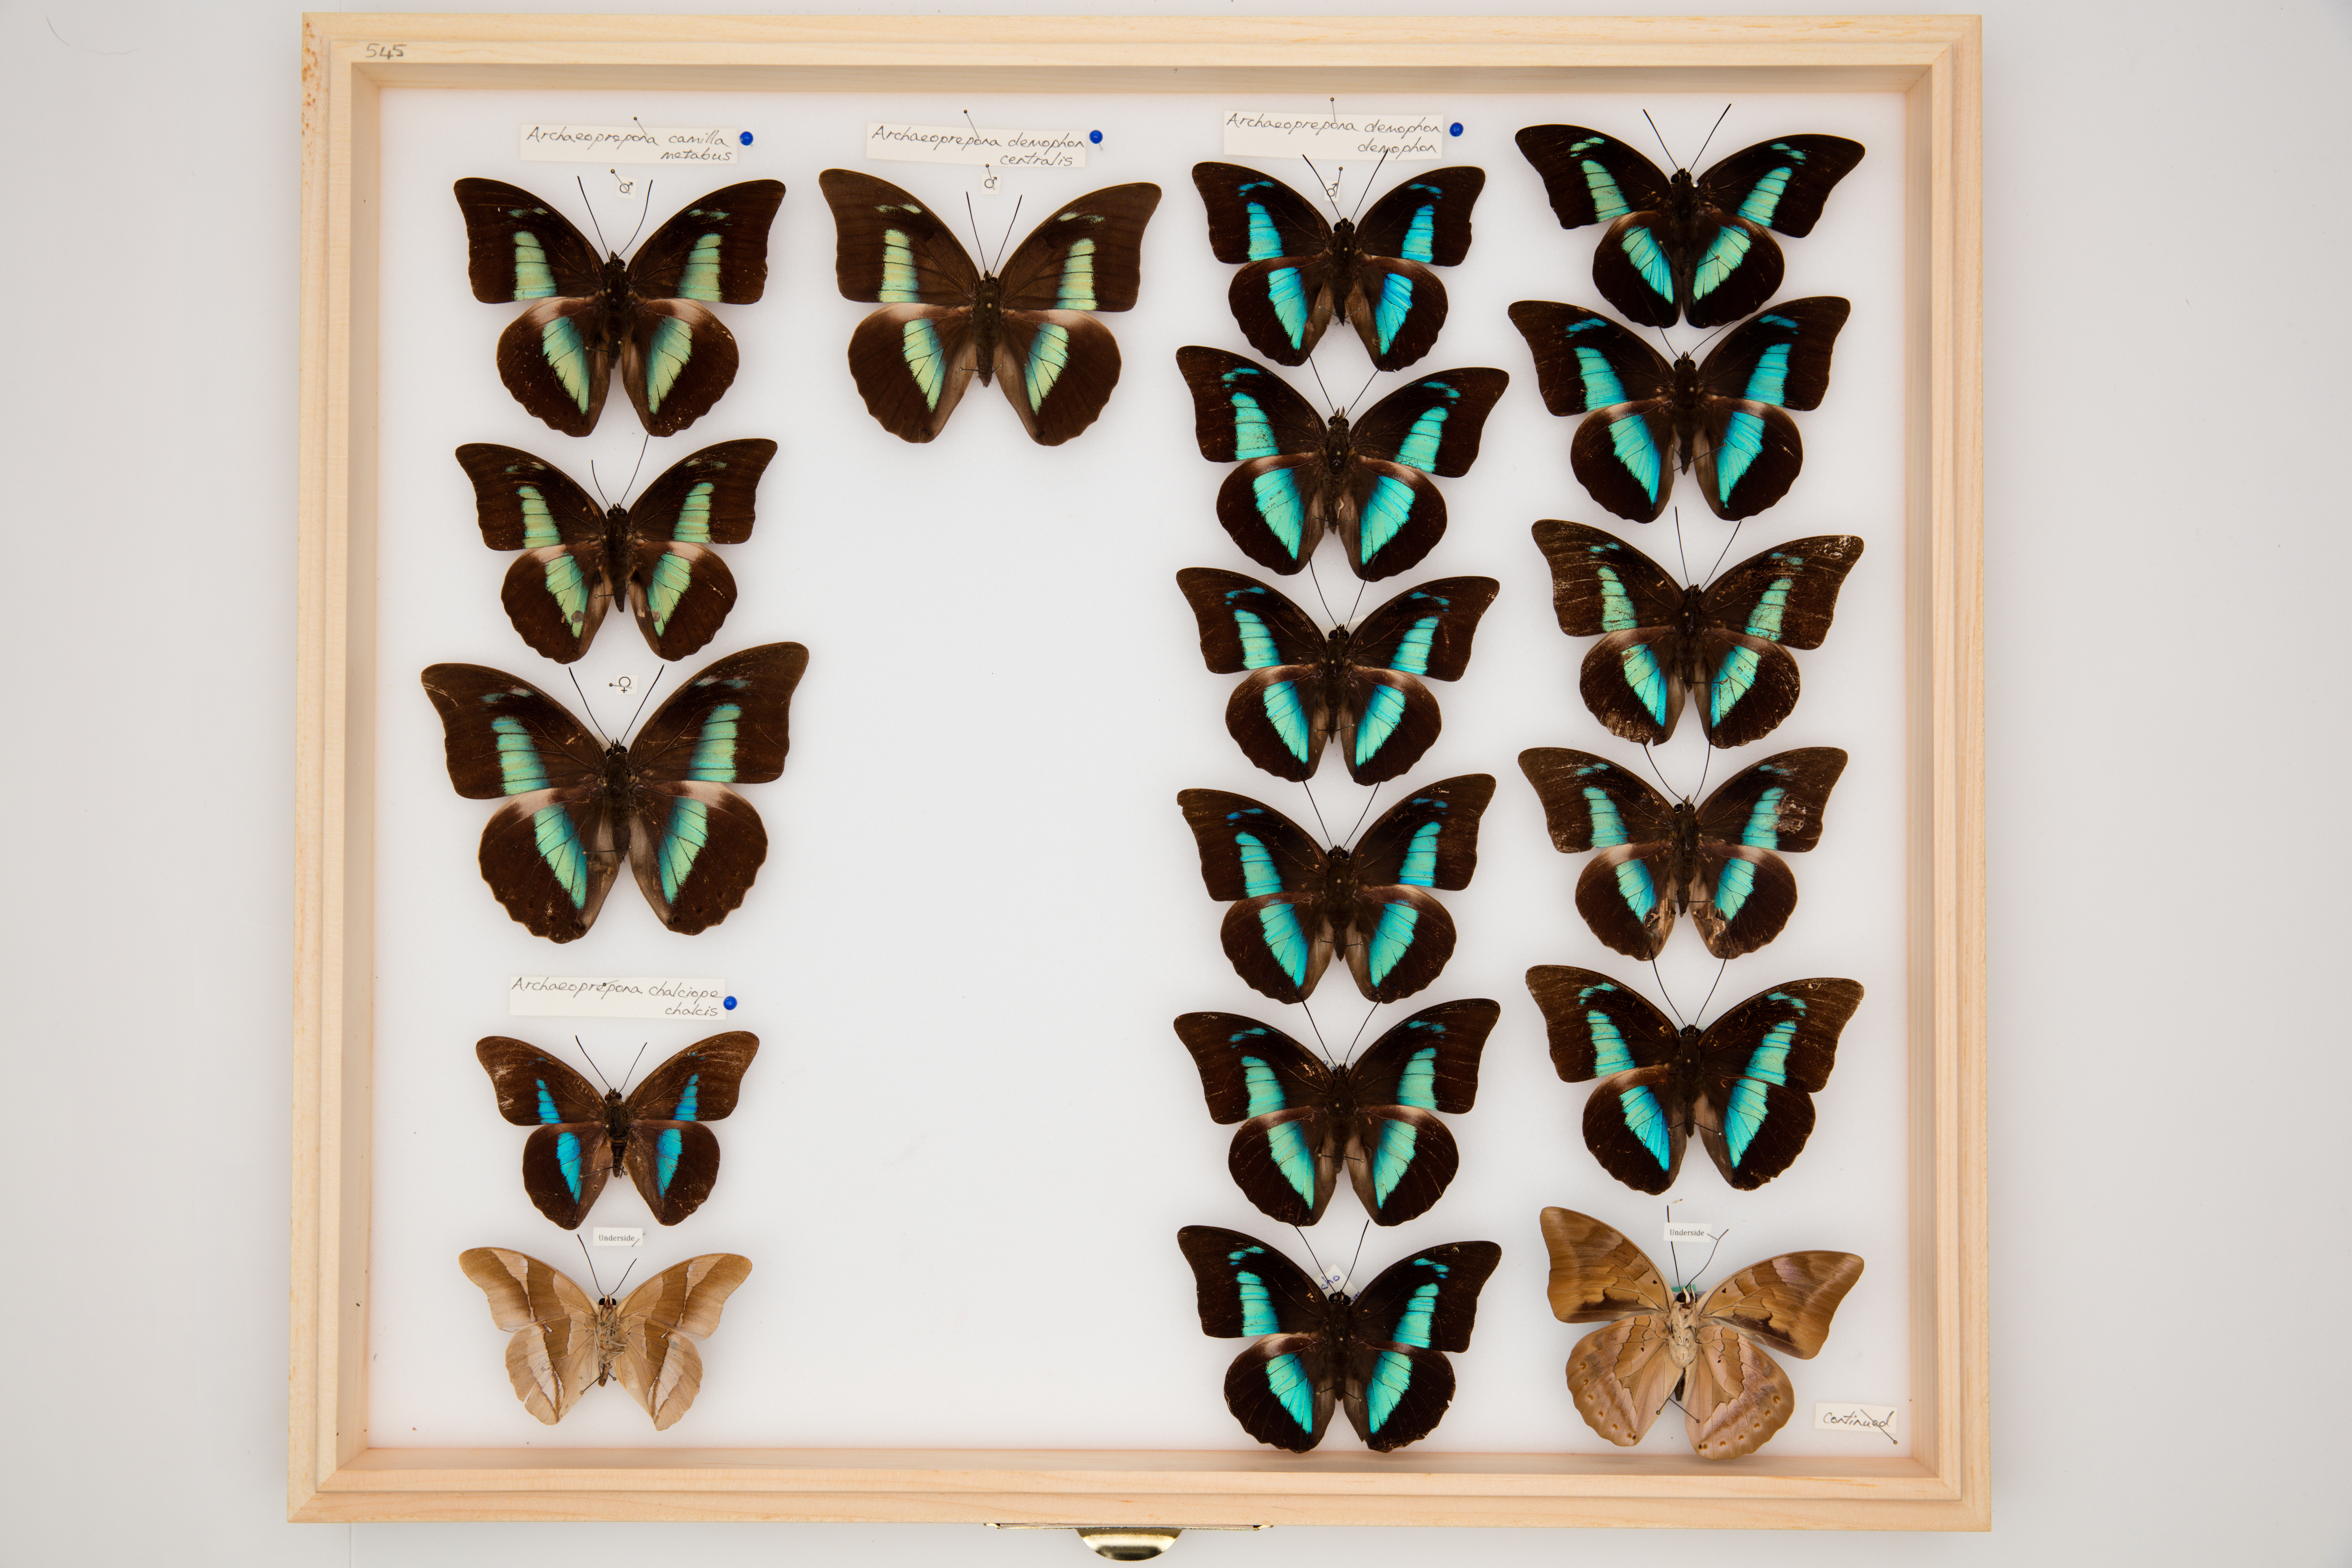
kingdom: Animalia
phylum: Arthropoda
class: Insecta
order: Lepidoptera
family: Nymphalidae
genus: Prepona
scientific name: Prepona Archaeoprepona chalciope
